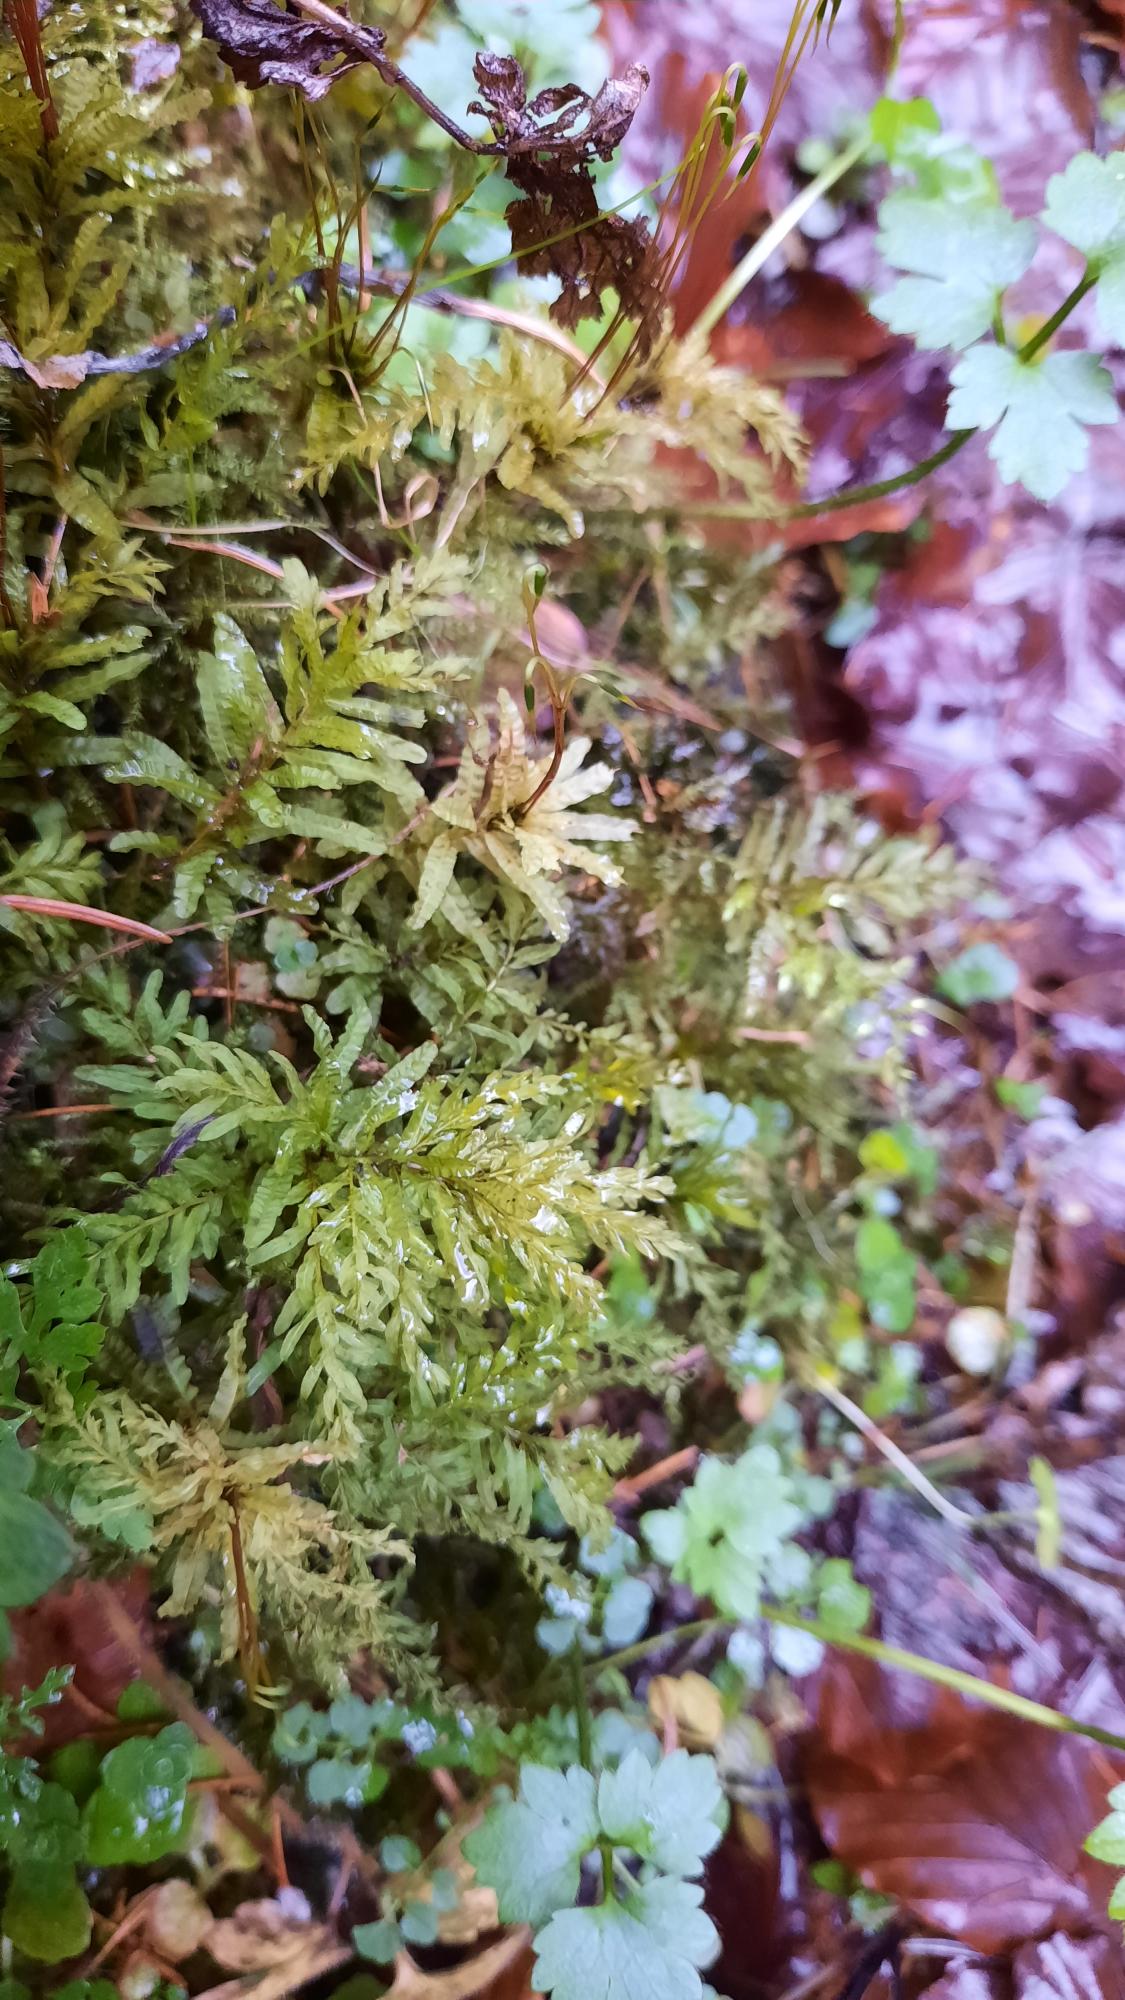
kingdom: Plantae
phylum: Bryophyta
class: Bryopsida
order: Bryales
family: Mniaceae
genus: Plagiomnium
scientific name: Plagiomnium undulatum
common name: Bølget krybstjerne
